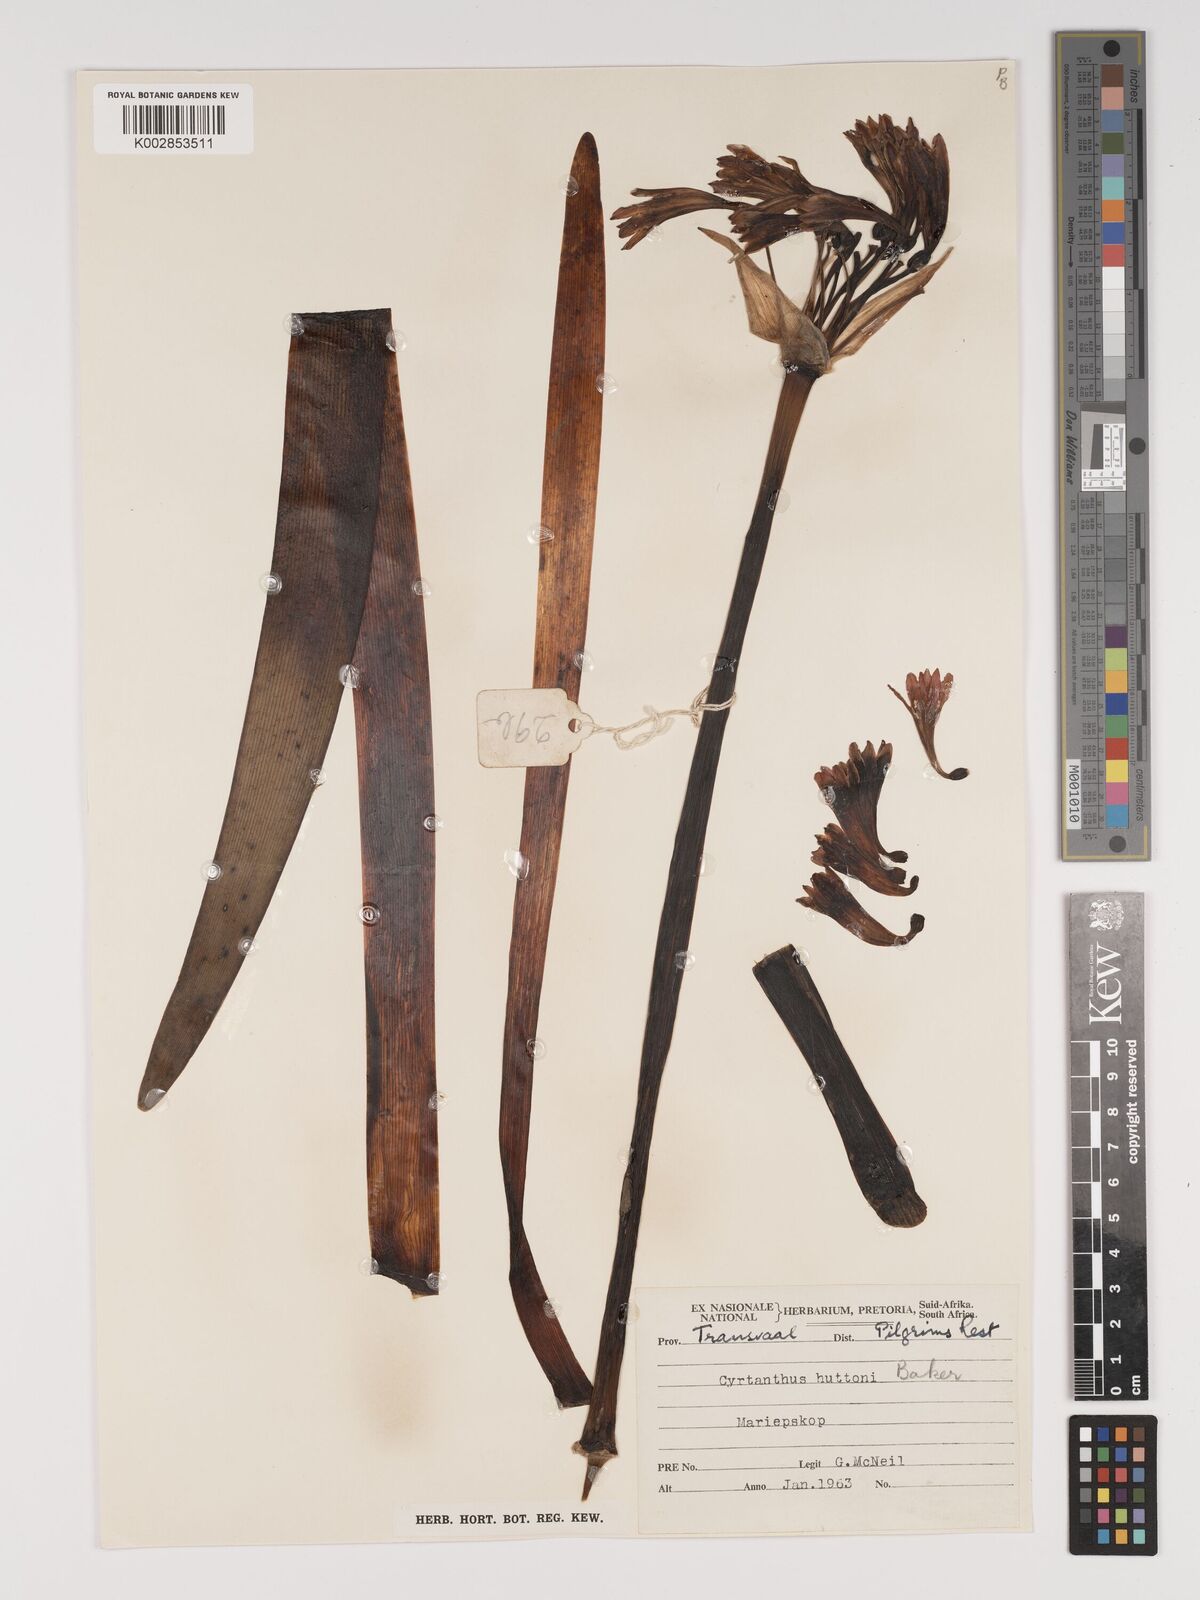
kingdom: Plantae
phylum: Tracheophyta
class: Liliopsida
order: Asparagales
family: Amaryllidaceae
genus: Cyrtanthus
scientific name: Cyrtanthus huttonii
